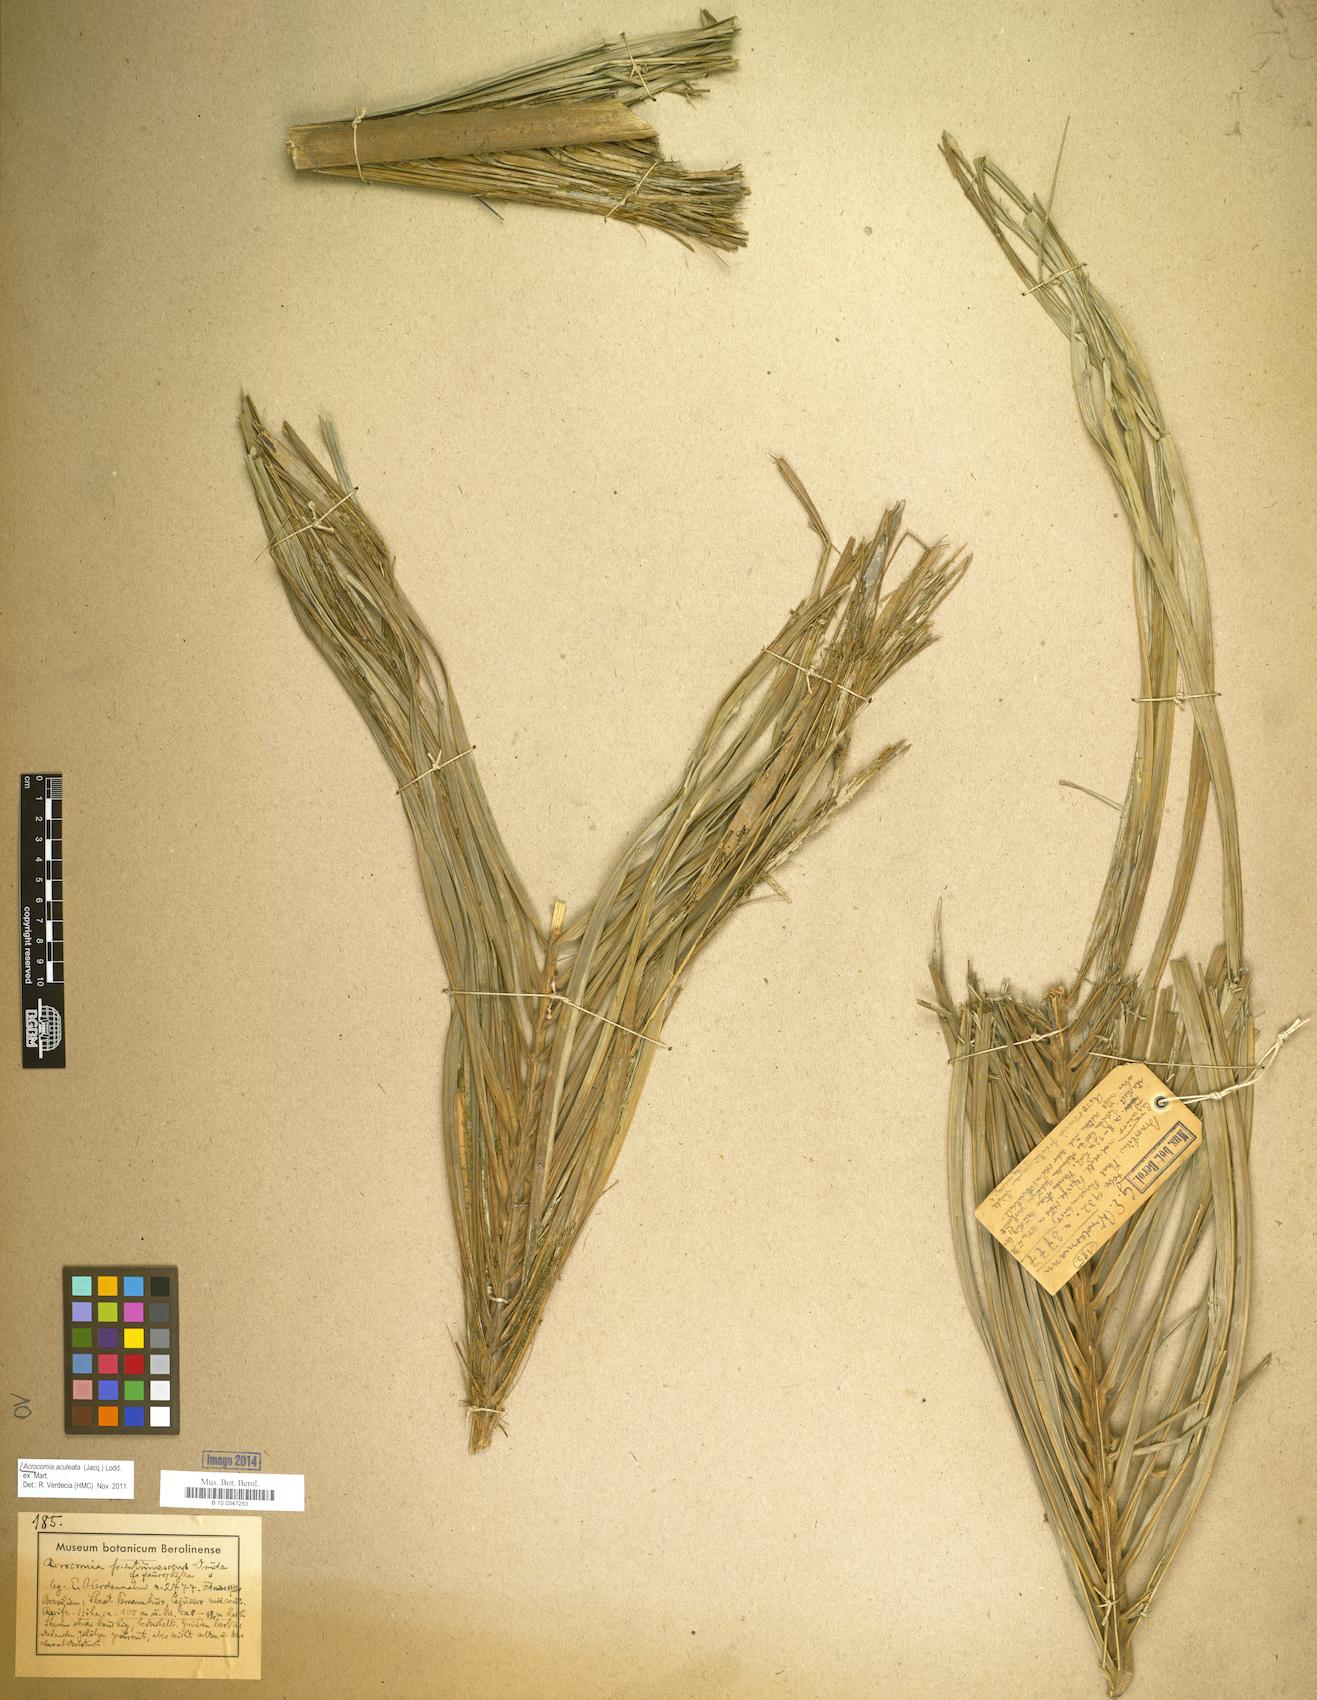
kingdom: Plantae
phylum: Tracheophyta
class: Liliopsida
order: Arecales
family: Arecaceae
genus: Acrocomia
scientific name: Acrocomia aculeata
